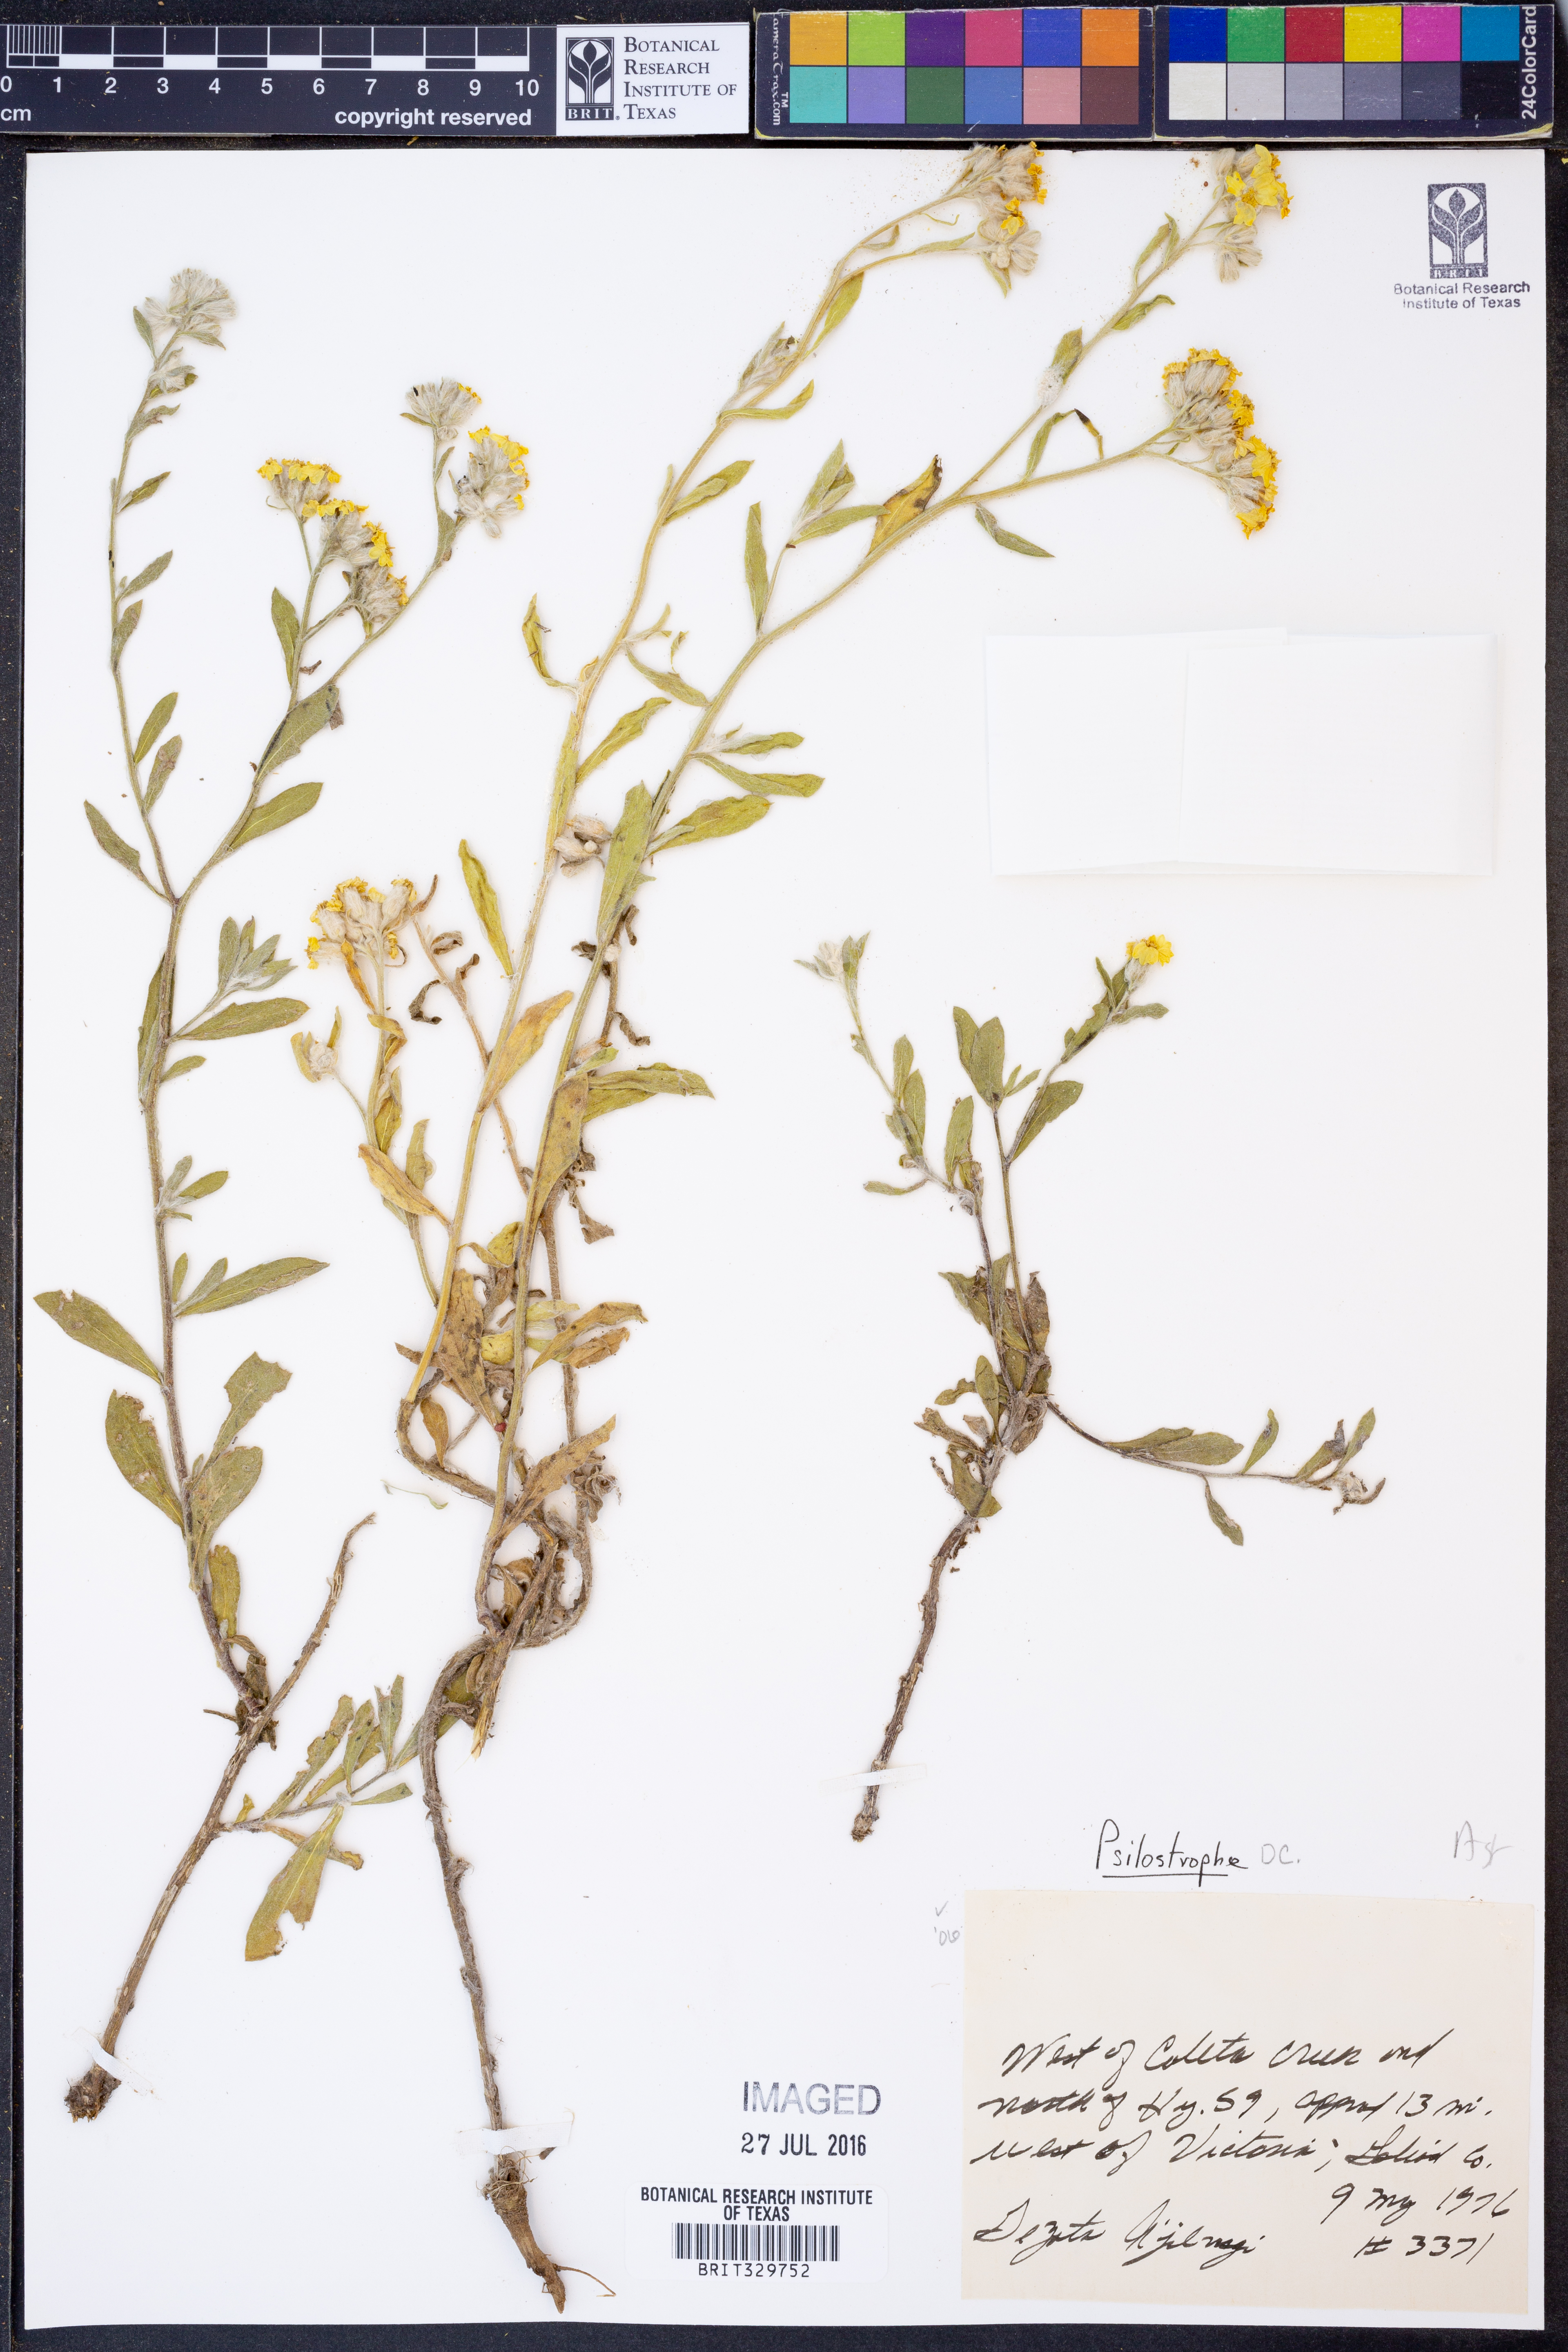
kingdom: Plantae
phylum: Tracheophyta
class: Magnoliopsida
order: Asterales
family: Asteraceae
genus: Psilostrophe
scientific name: Psilostrophe
